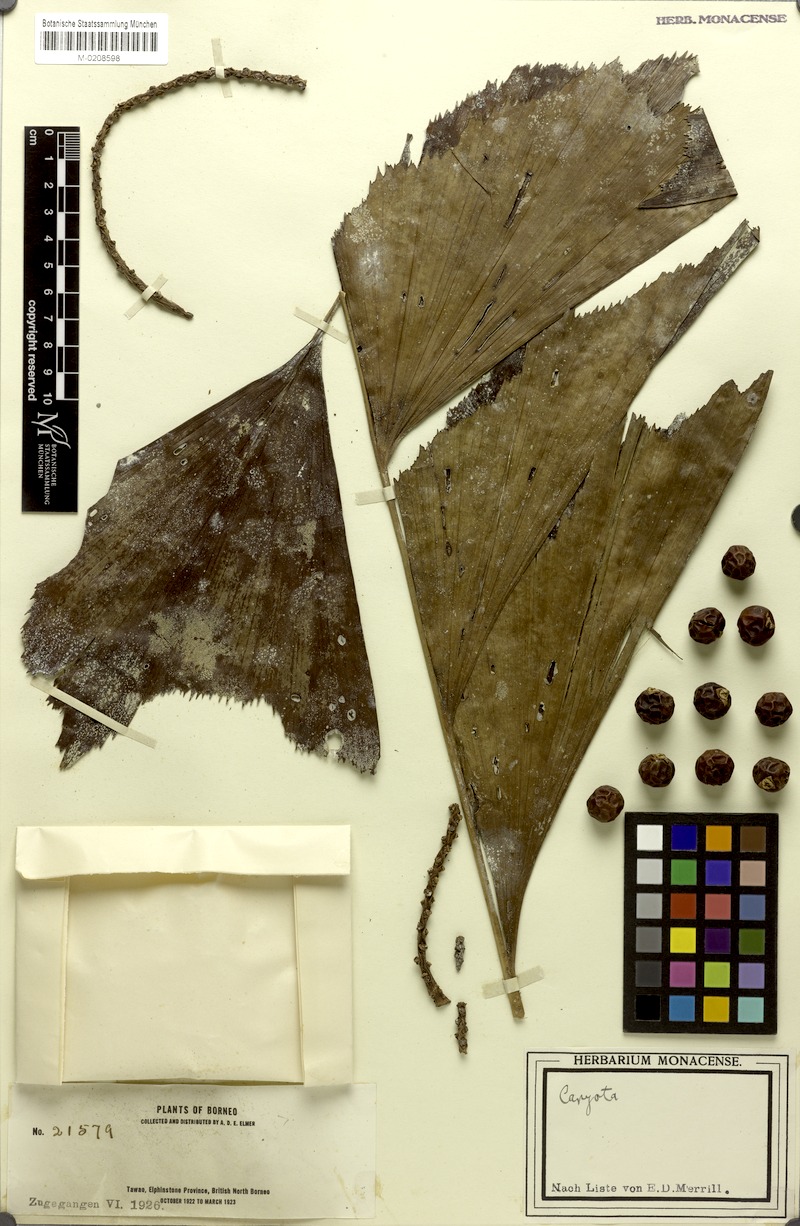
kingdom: Plantae
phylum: Tracheophyta
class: Liliopsida
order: Arecales
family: Arecaceae
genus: Caryota
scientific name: Caryota
